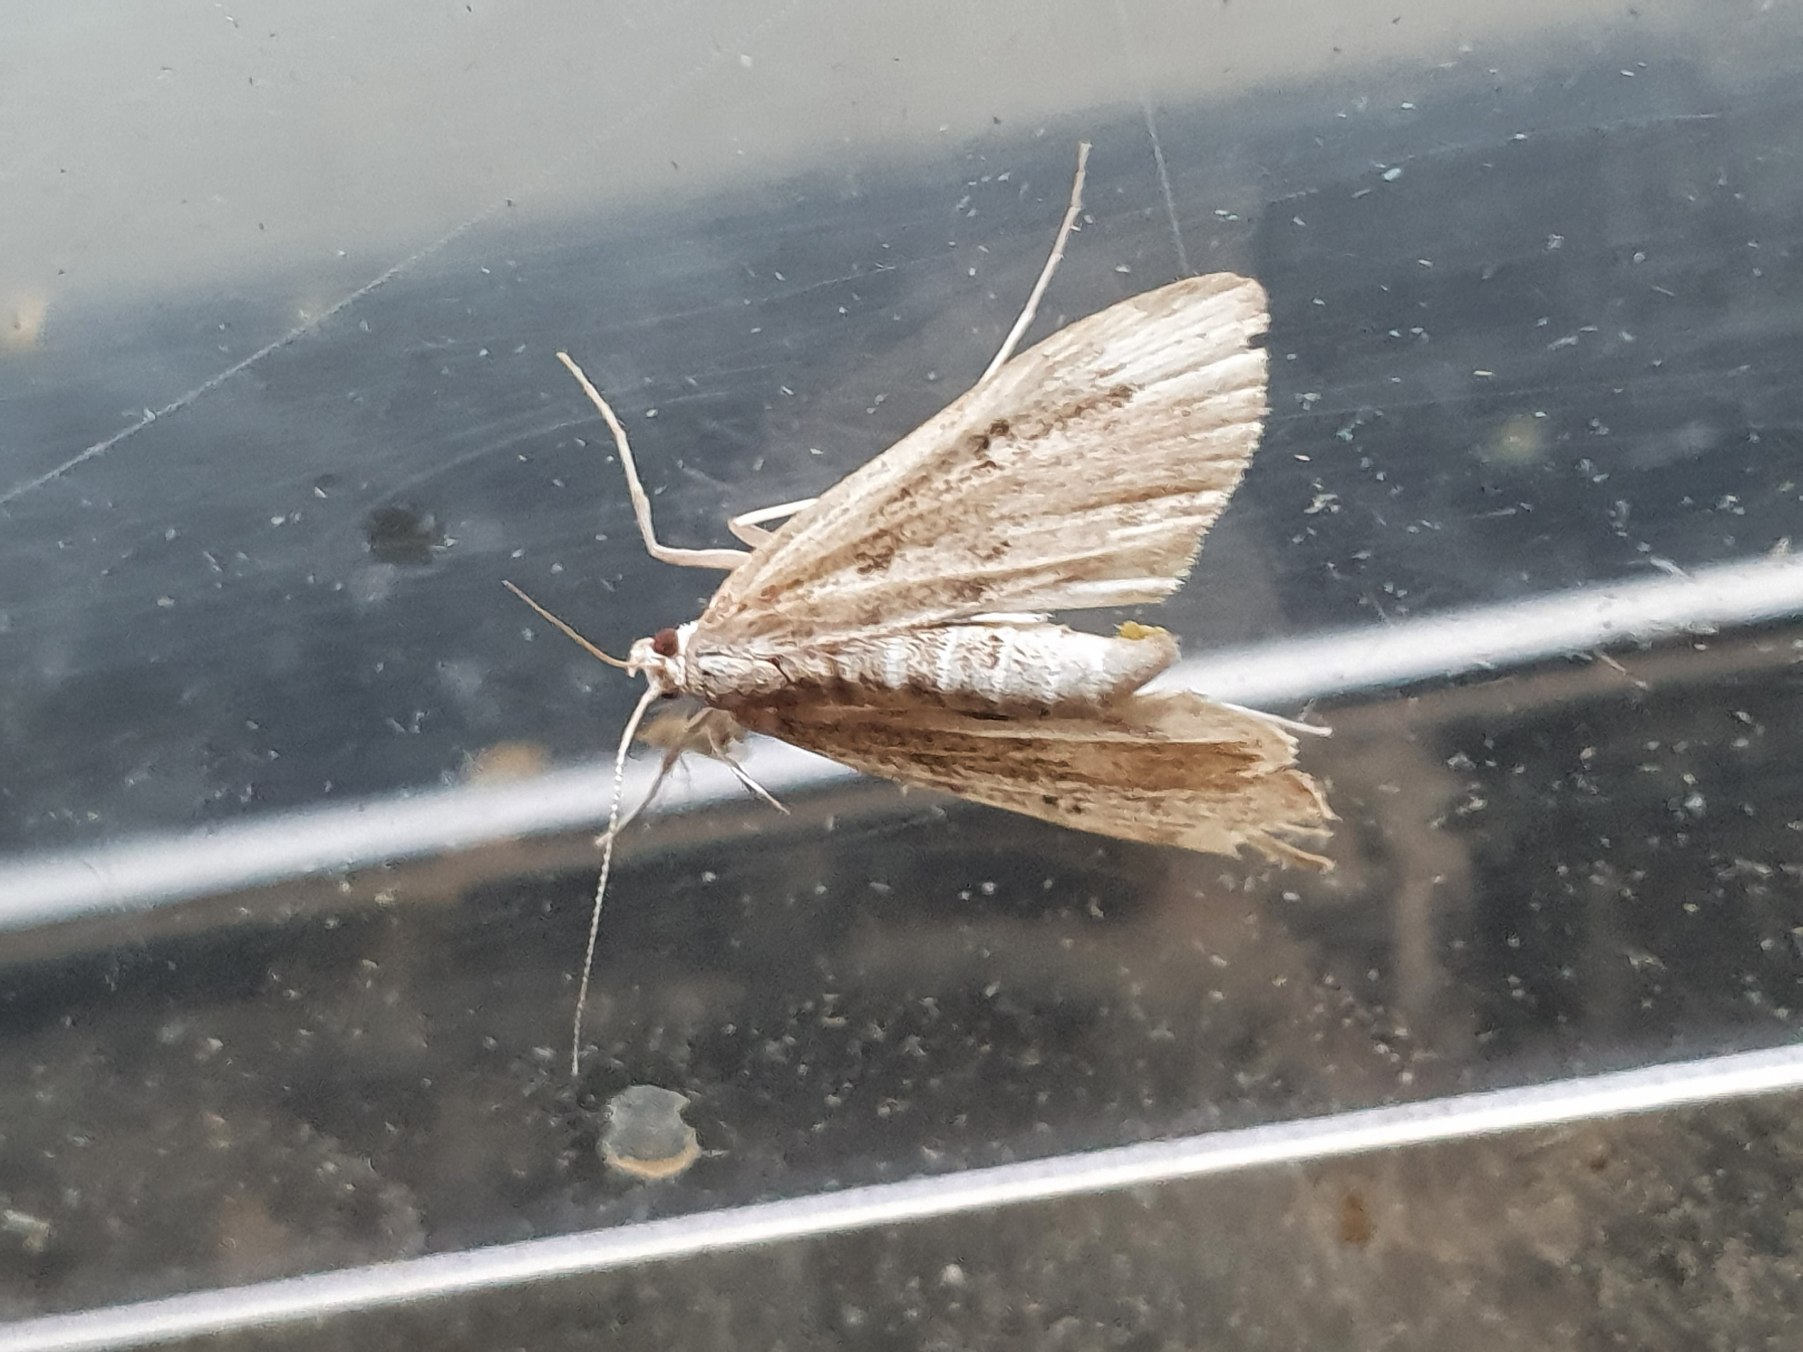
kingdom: Animalia
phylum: Arthropoda
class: Insecta
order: Lepidoptera
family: Crambidae
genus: Parapoynx
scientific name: Parapoynx stratiotata
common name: Vandpesthalvmøl
